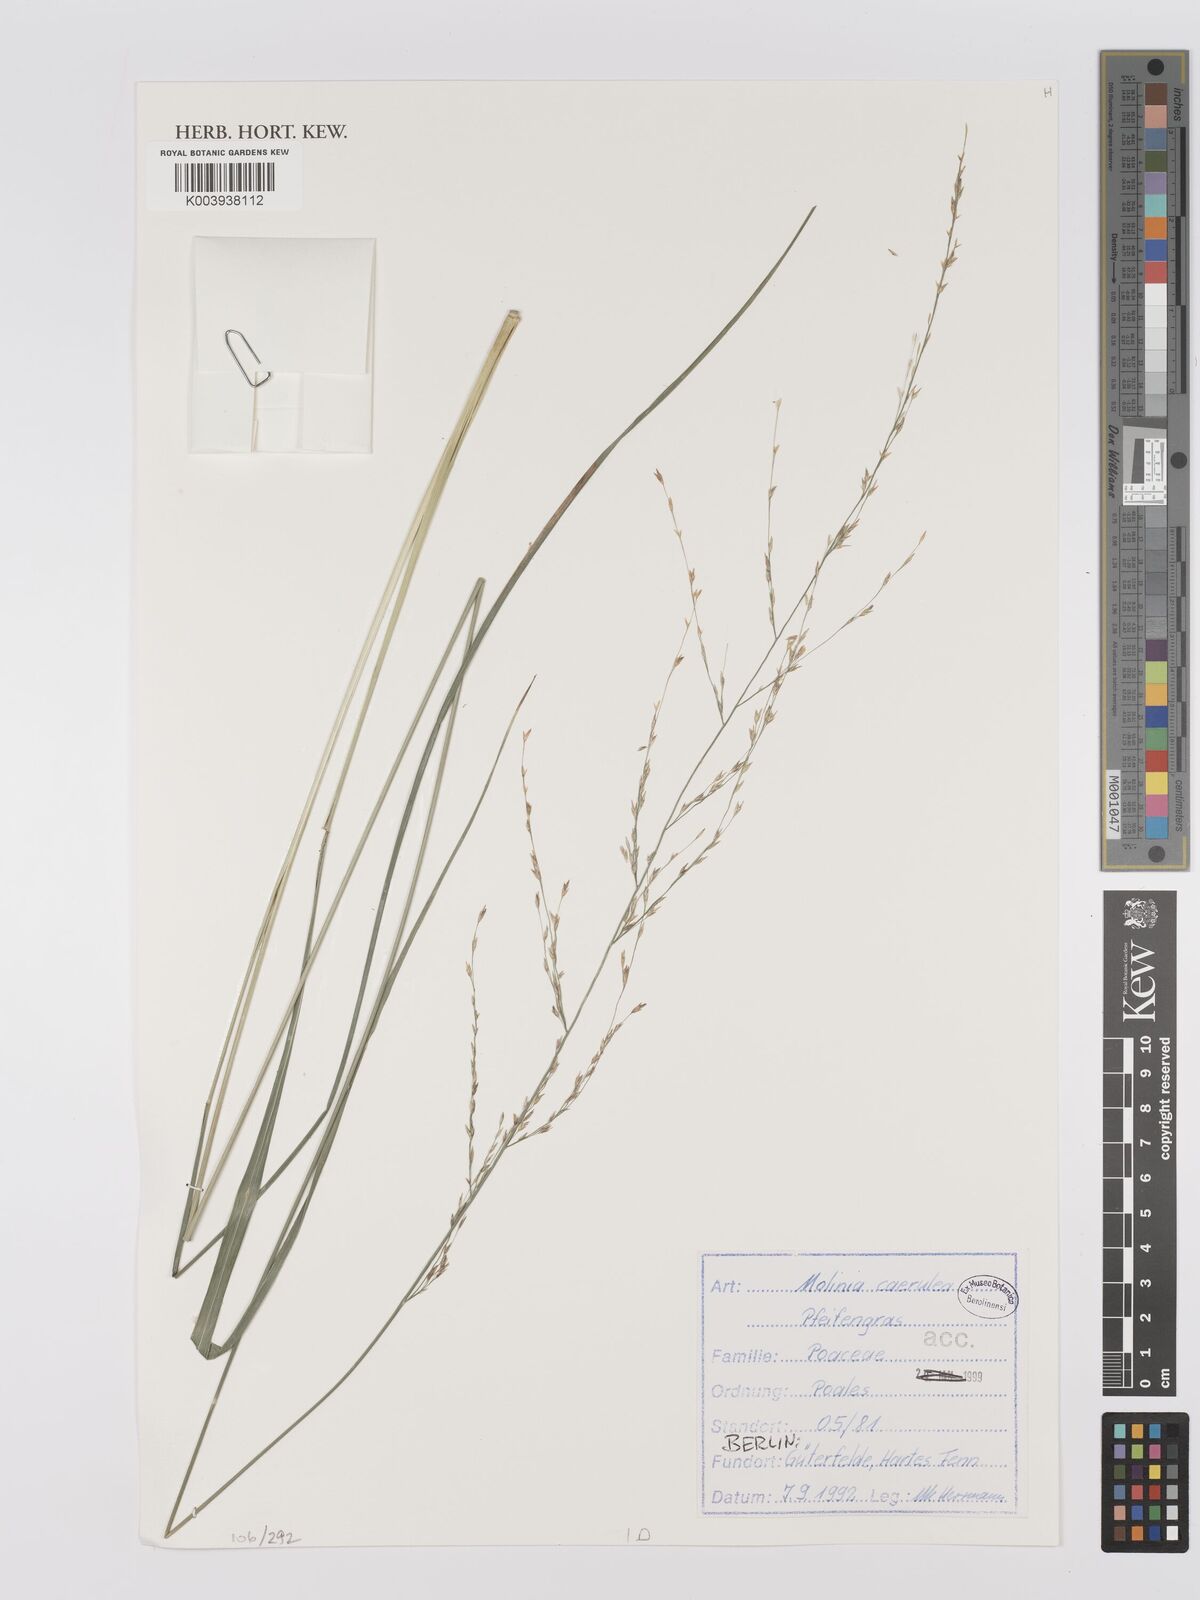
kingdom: Plantae
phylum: Tracheophyta
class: Liliopsida
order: Poales
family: Poaceae
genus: Hakonechloa
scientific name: Hakonechloa
